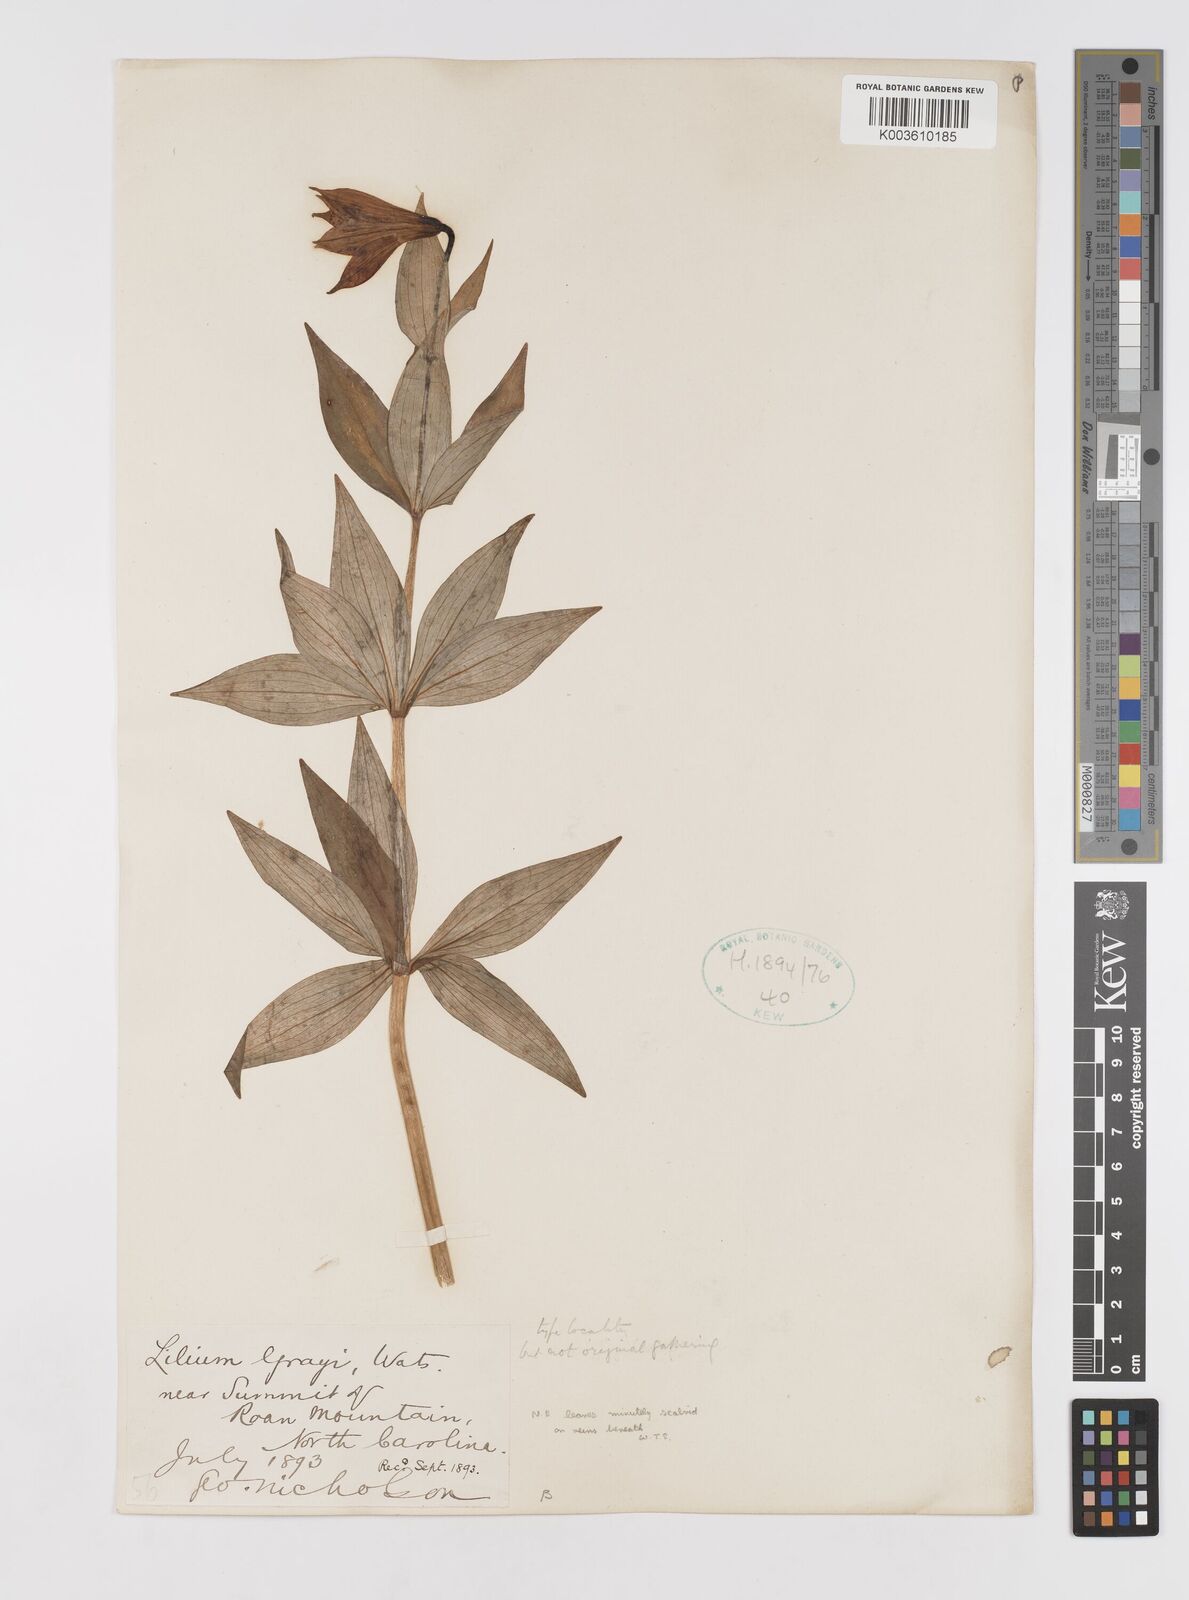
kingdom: Plantae
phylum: Tracheophyta
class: Liliopsida
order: Liliales
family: Liliaceae
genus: Lilium
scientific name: Lilium grayi
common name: Gray's lily
